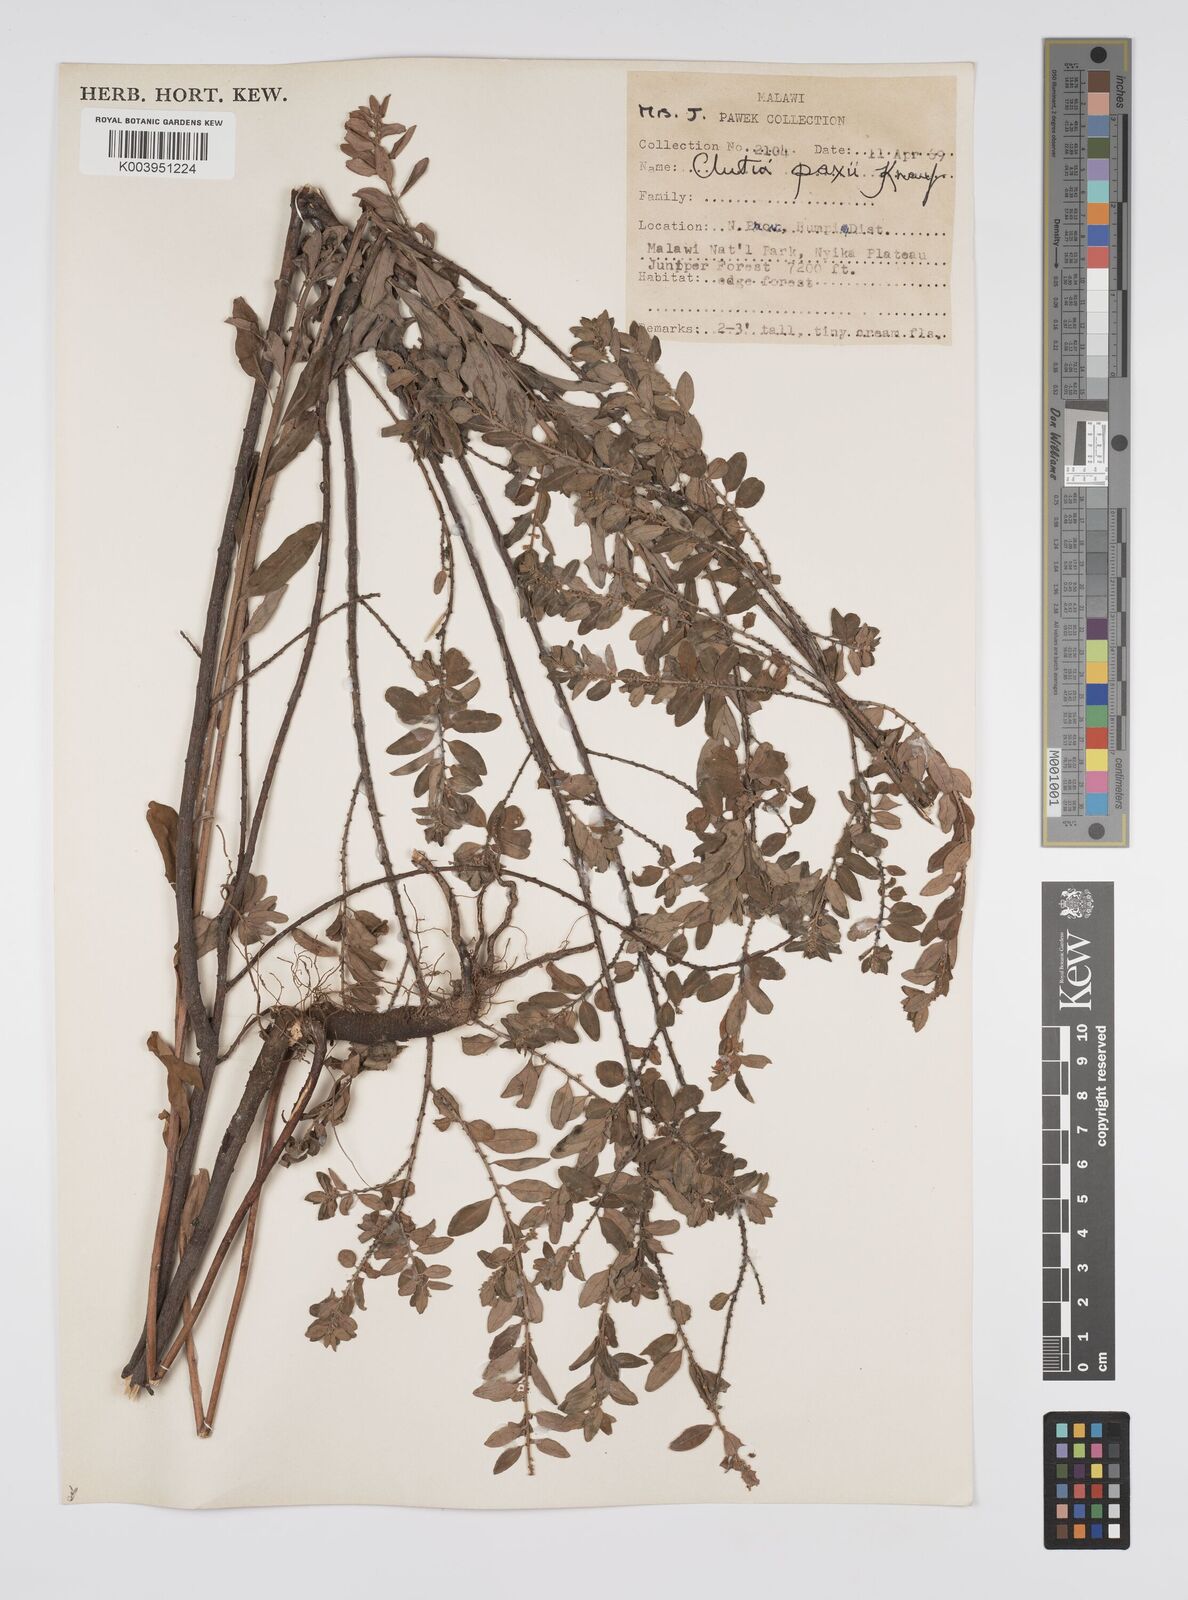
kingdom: Plantae
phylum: Tracheophyta
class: Magnoliopsida
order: Malpighiales
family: Peraceae
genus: Clutia
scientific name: Clutia paxii
